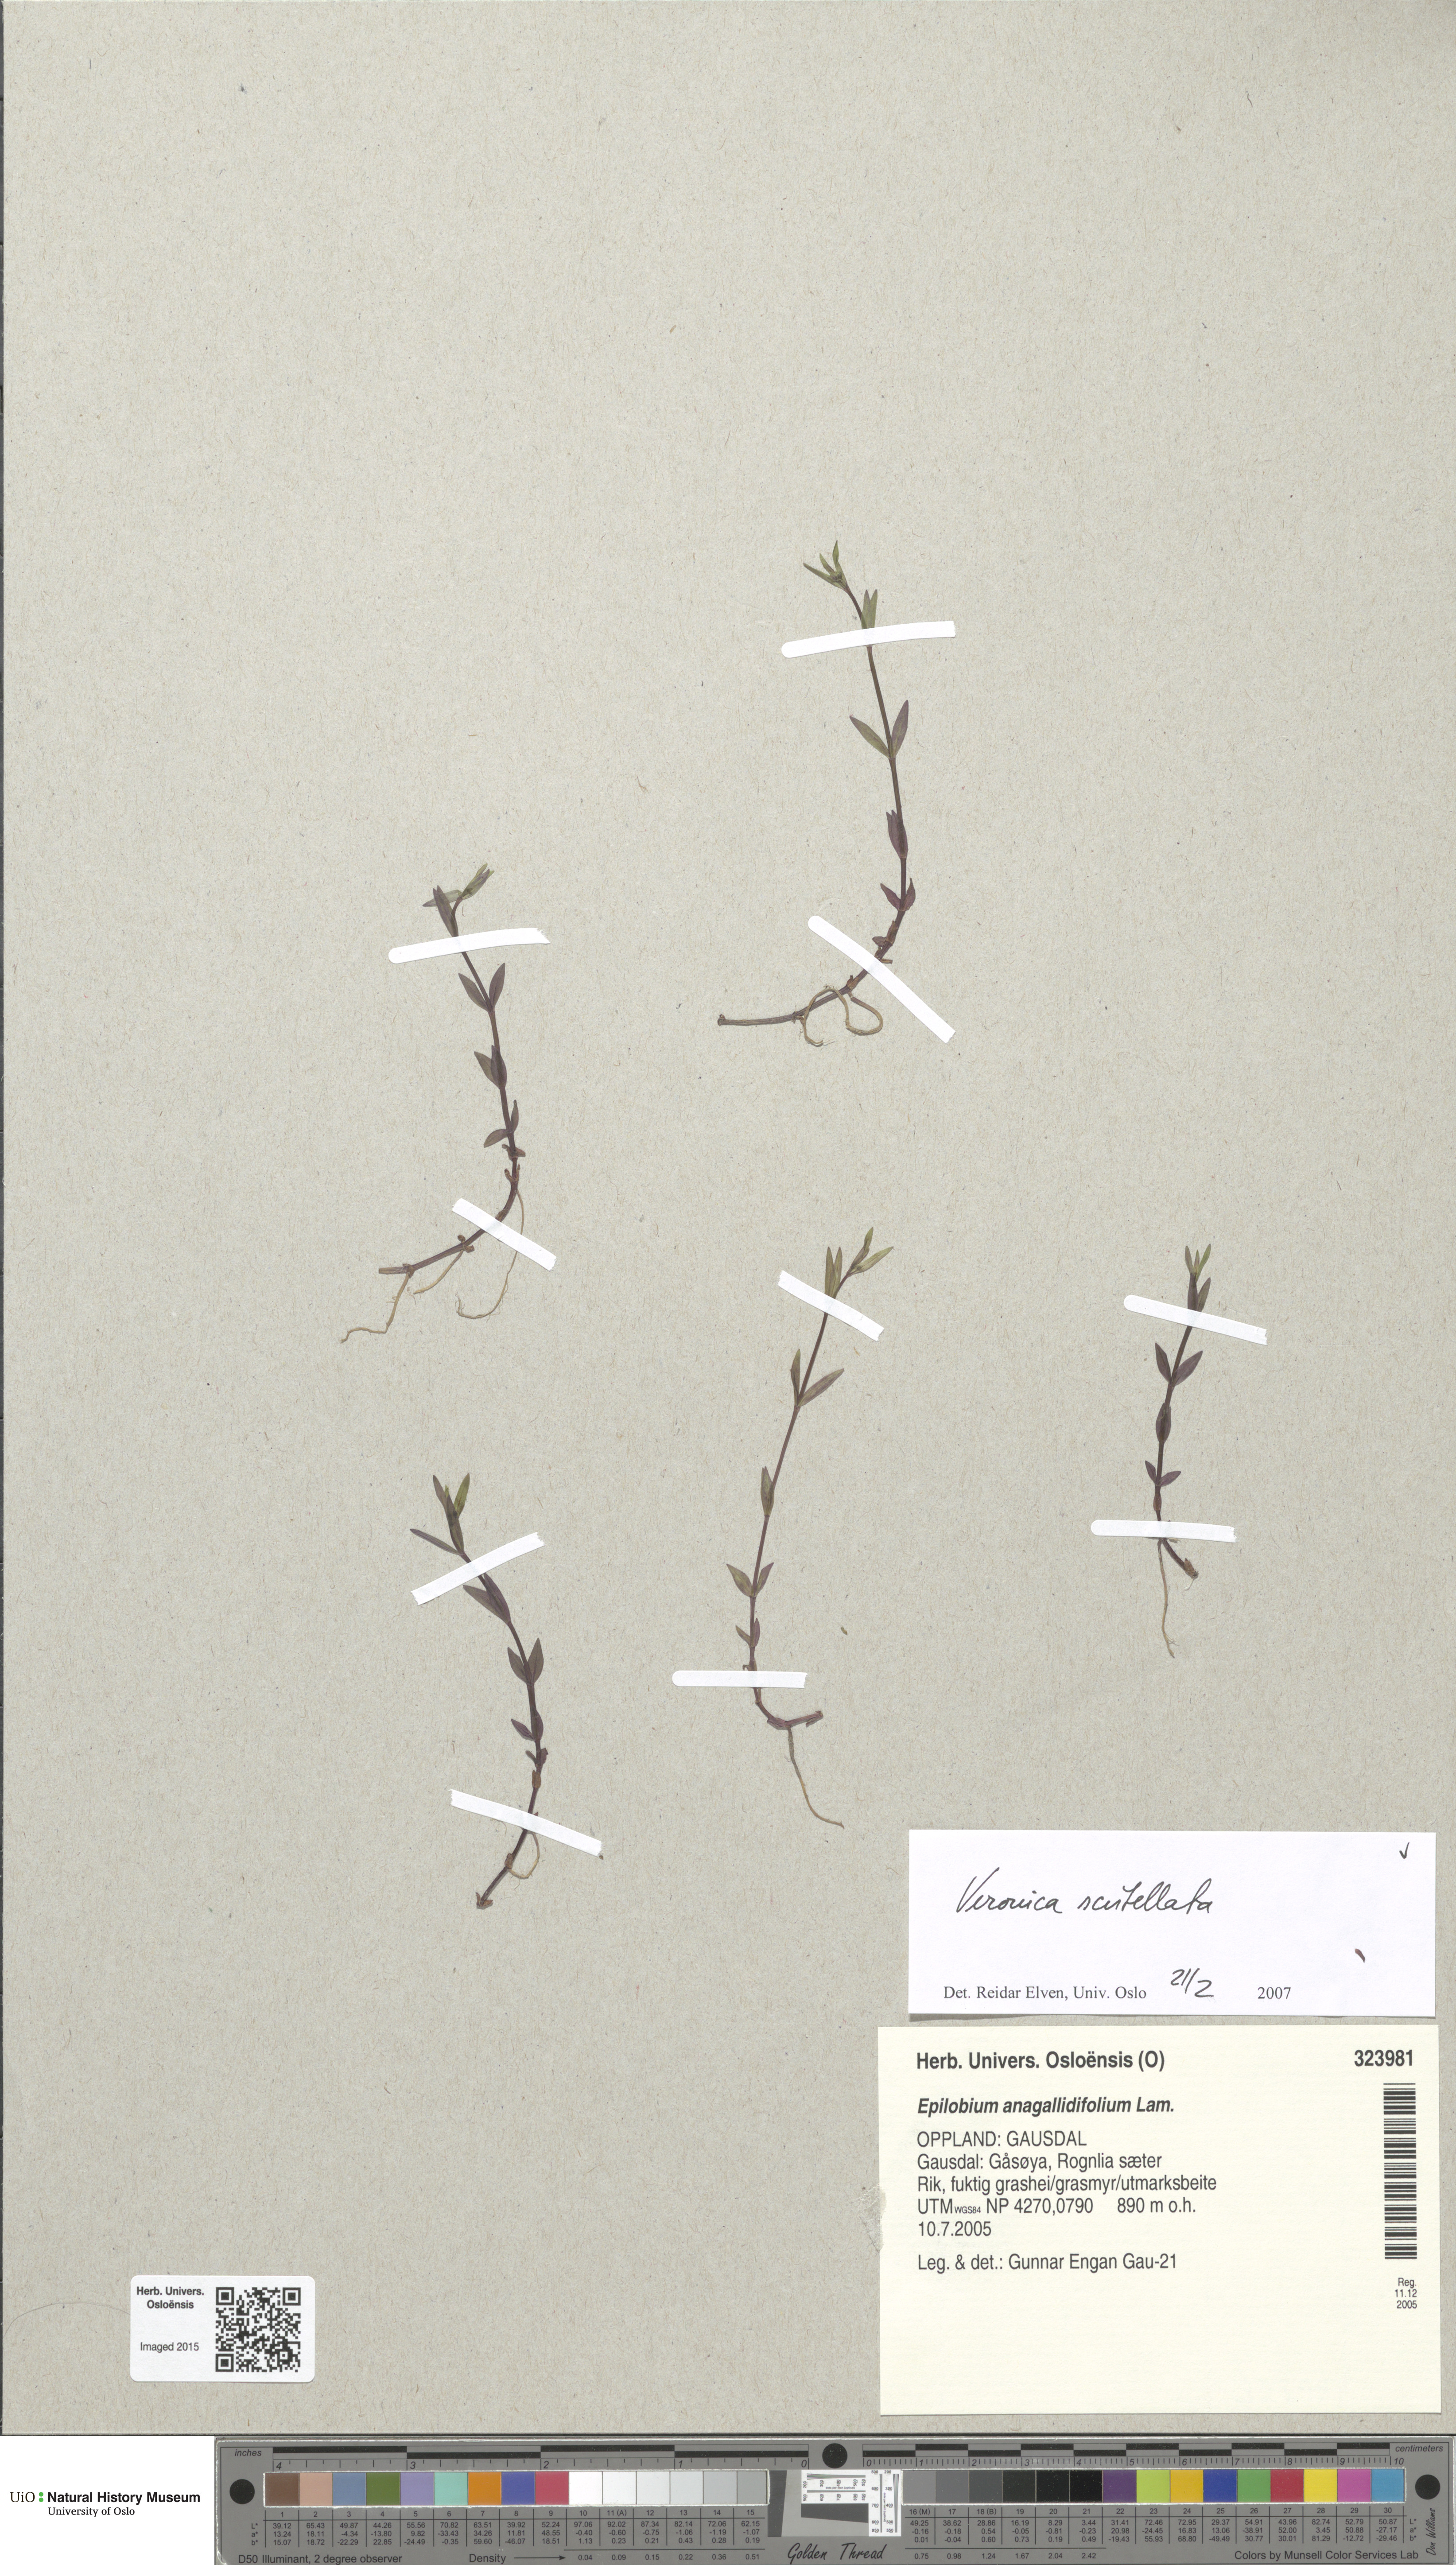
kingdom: Plantae
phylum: Tracheophyta
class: Magnoliopsida
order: Lamiales
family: Plantaginaceae
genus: Veronica
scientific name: Veronica scutellata
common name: Marsh speedwell
